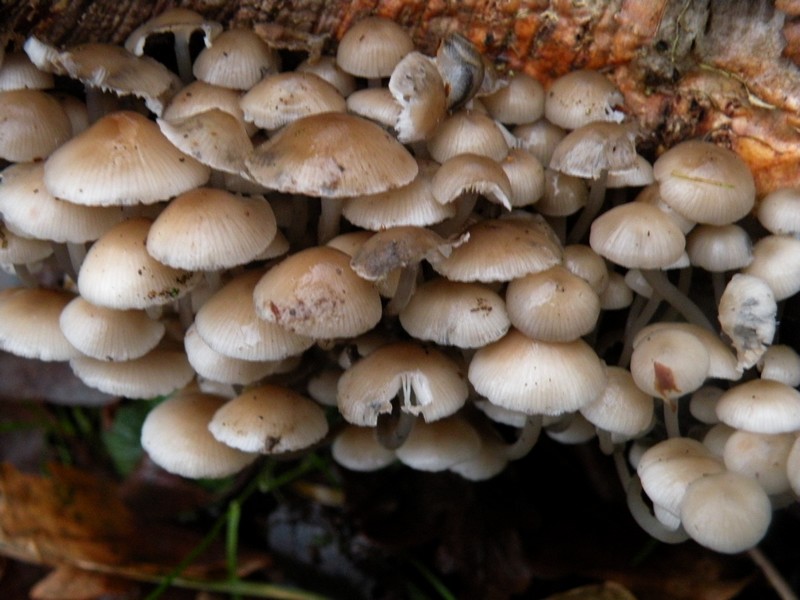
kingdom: Fungi
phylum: Basidiomycota
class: Agaricomycetes
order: Agaricales
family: Mycenaceae
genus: Mycena
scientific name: Mycena tintinnabulum
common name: vinter-huesvamp
